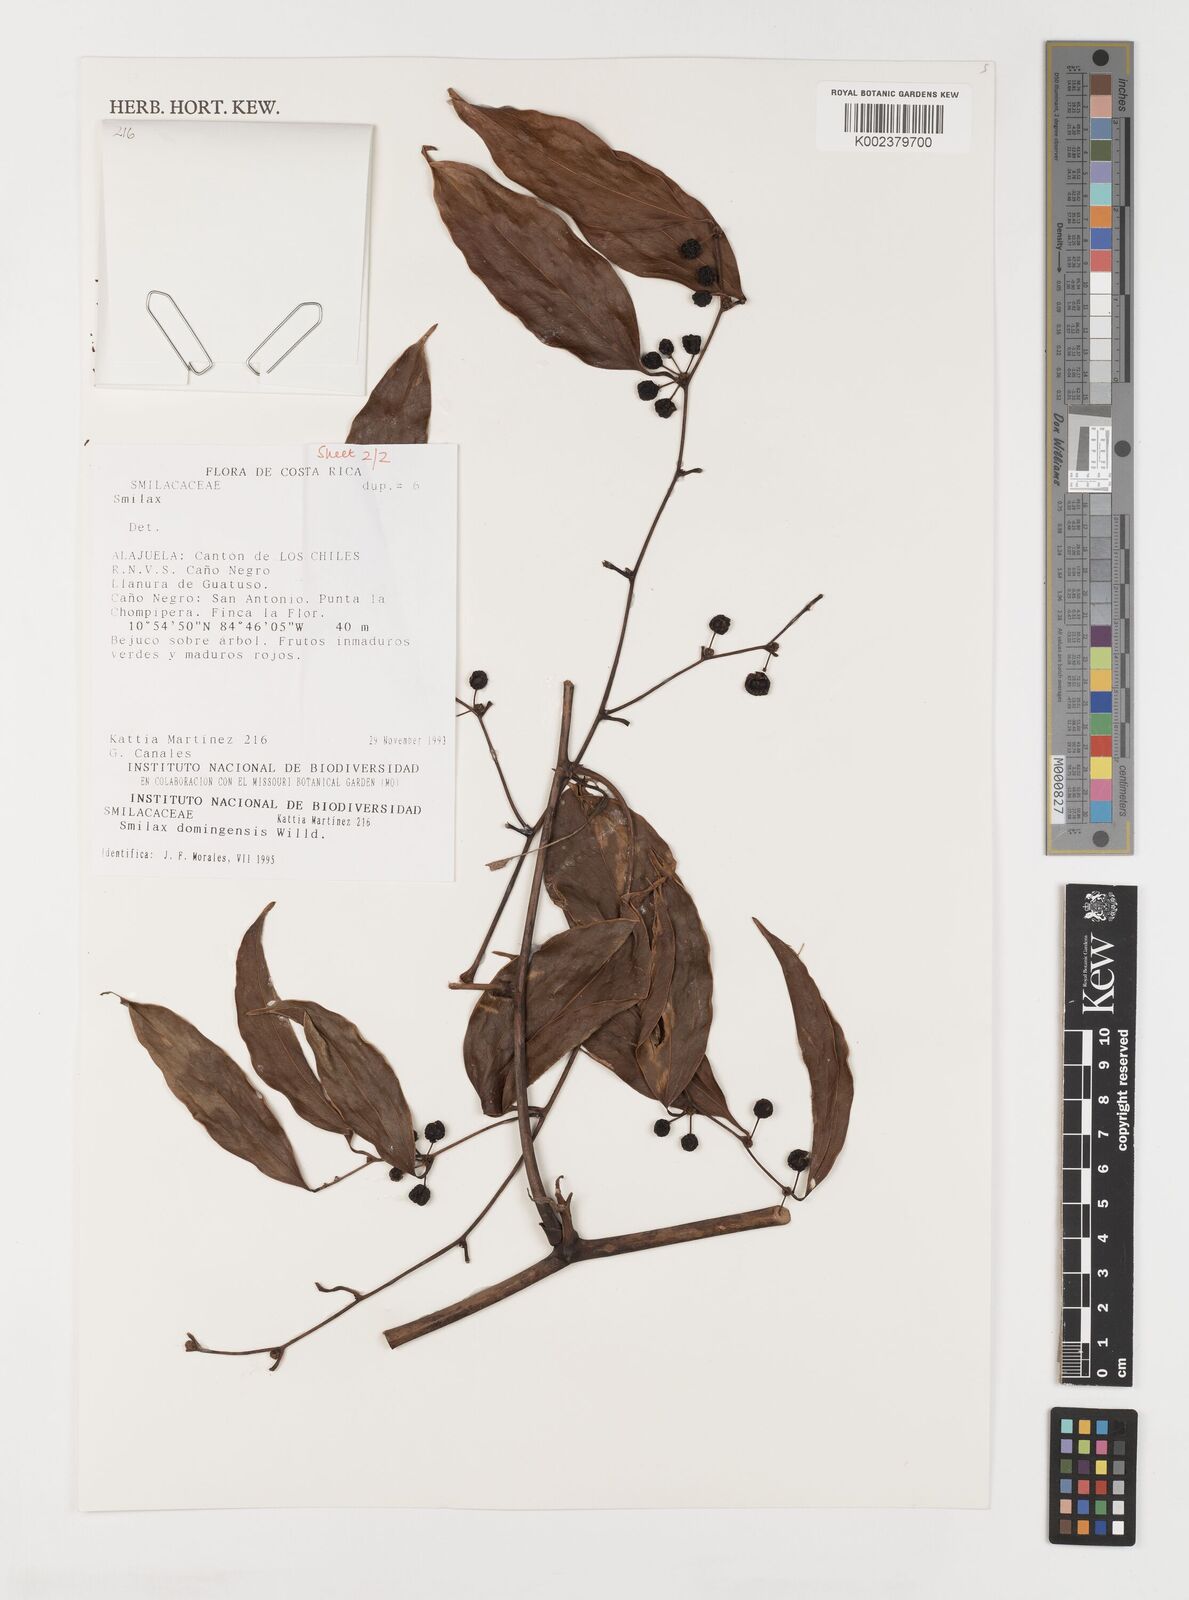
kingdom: Plantae
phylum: Tracheophyta
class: Liliopsida
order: Liliales
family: Smilacaceae
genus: Smilax
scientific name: Smilax domingensis
